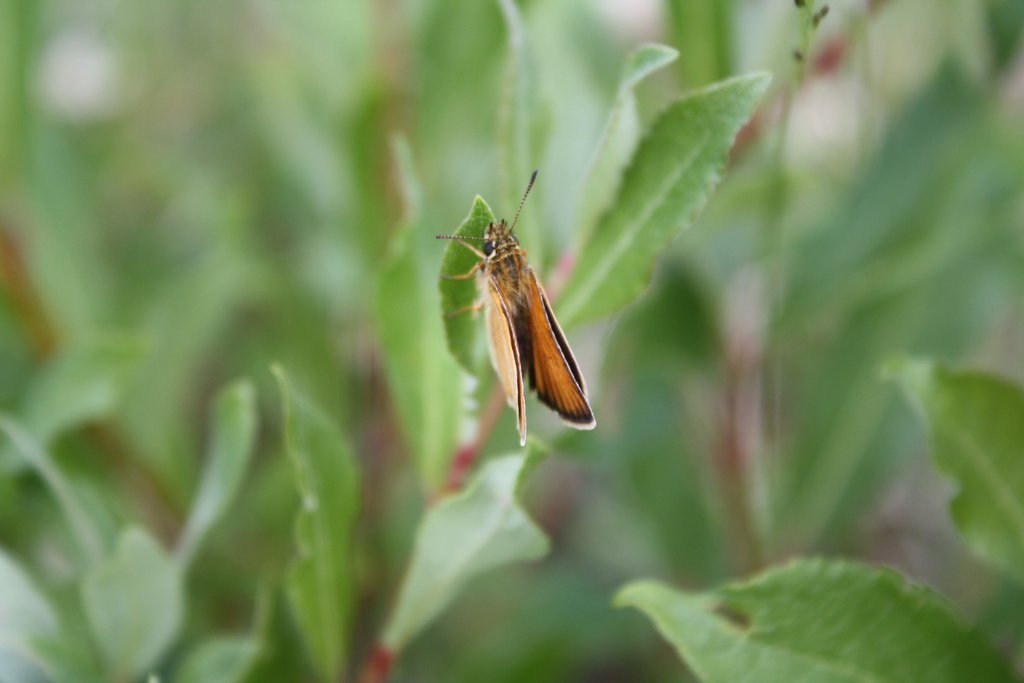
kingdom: Animalia
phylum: Arthropoda
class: Insecta
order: Lepidoptera
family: Hesperiidae
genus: Thymelicus
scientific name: Thymelicus lineola
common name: European Skipper
